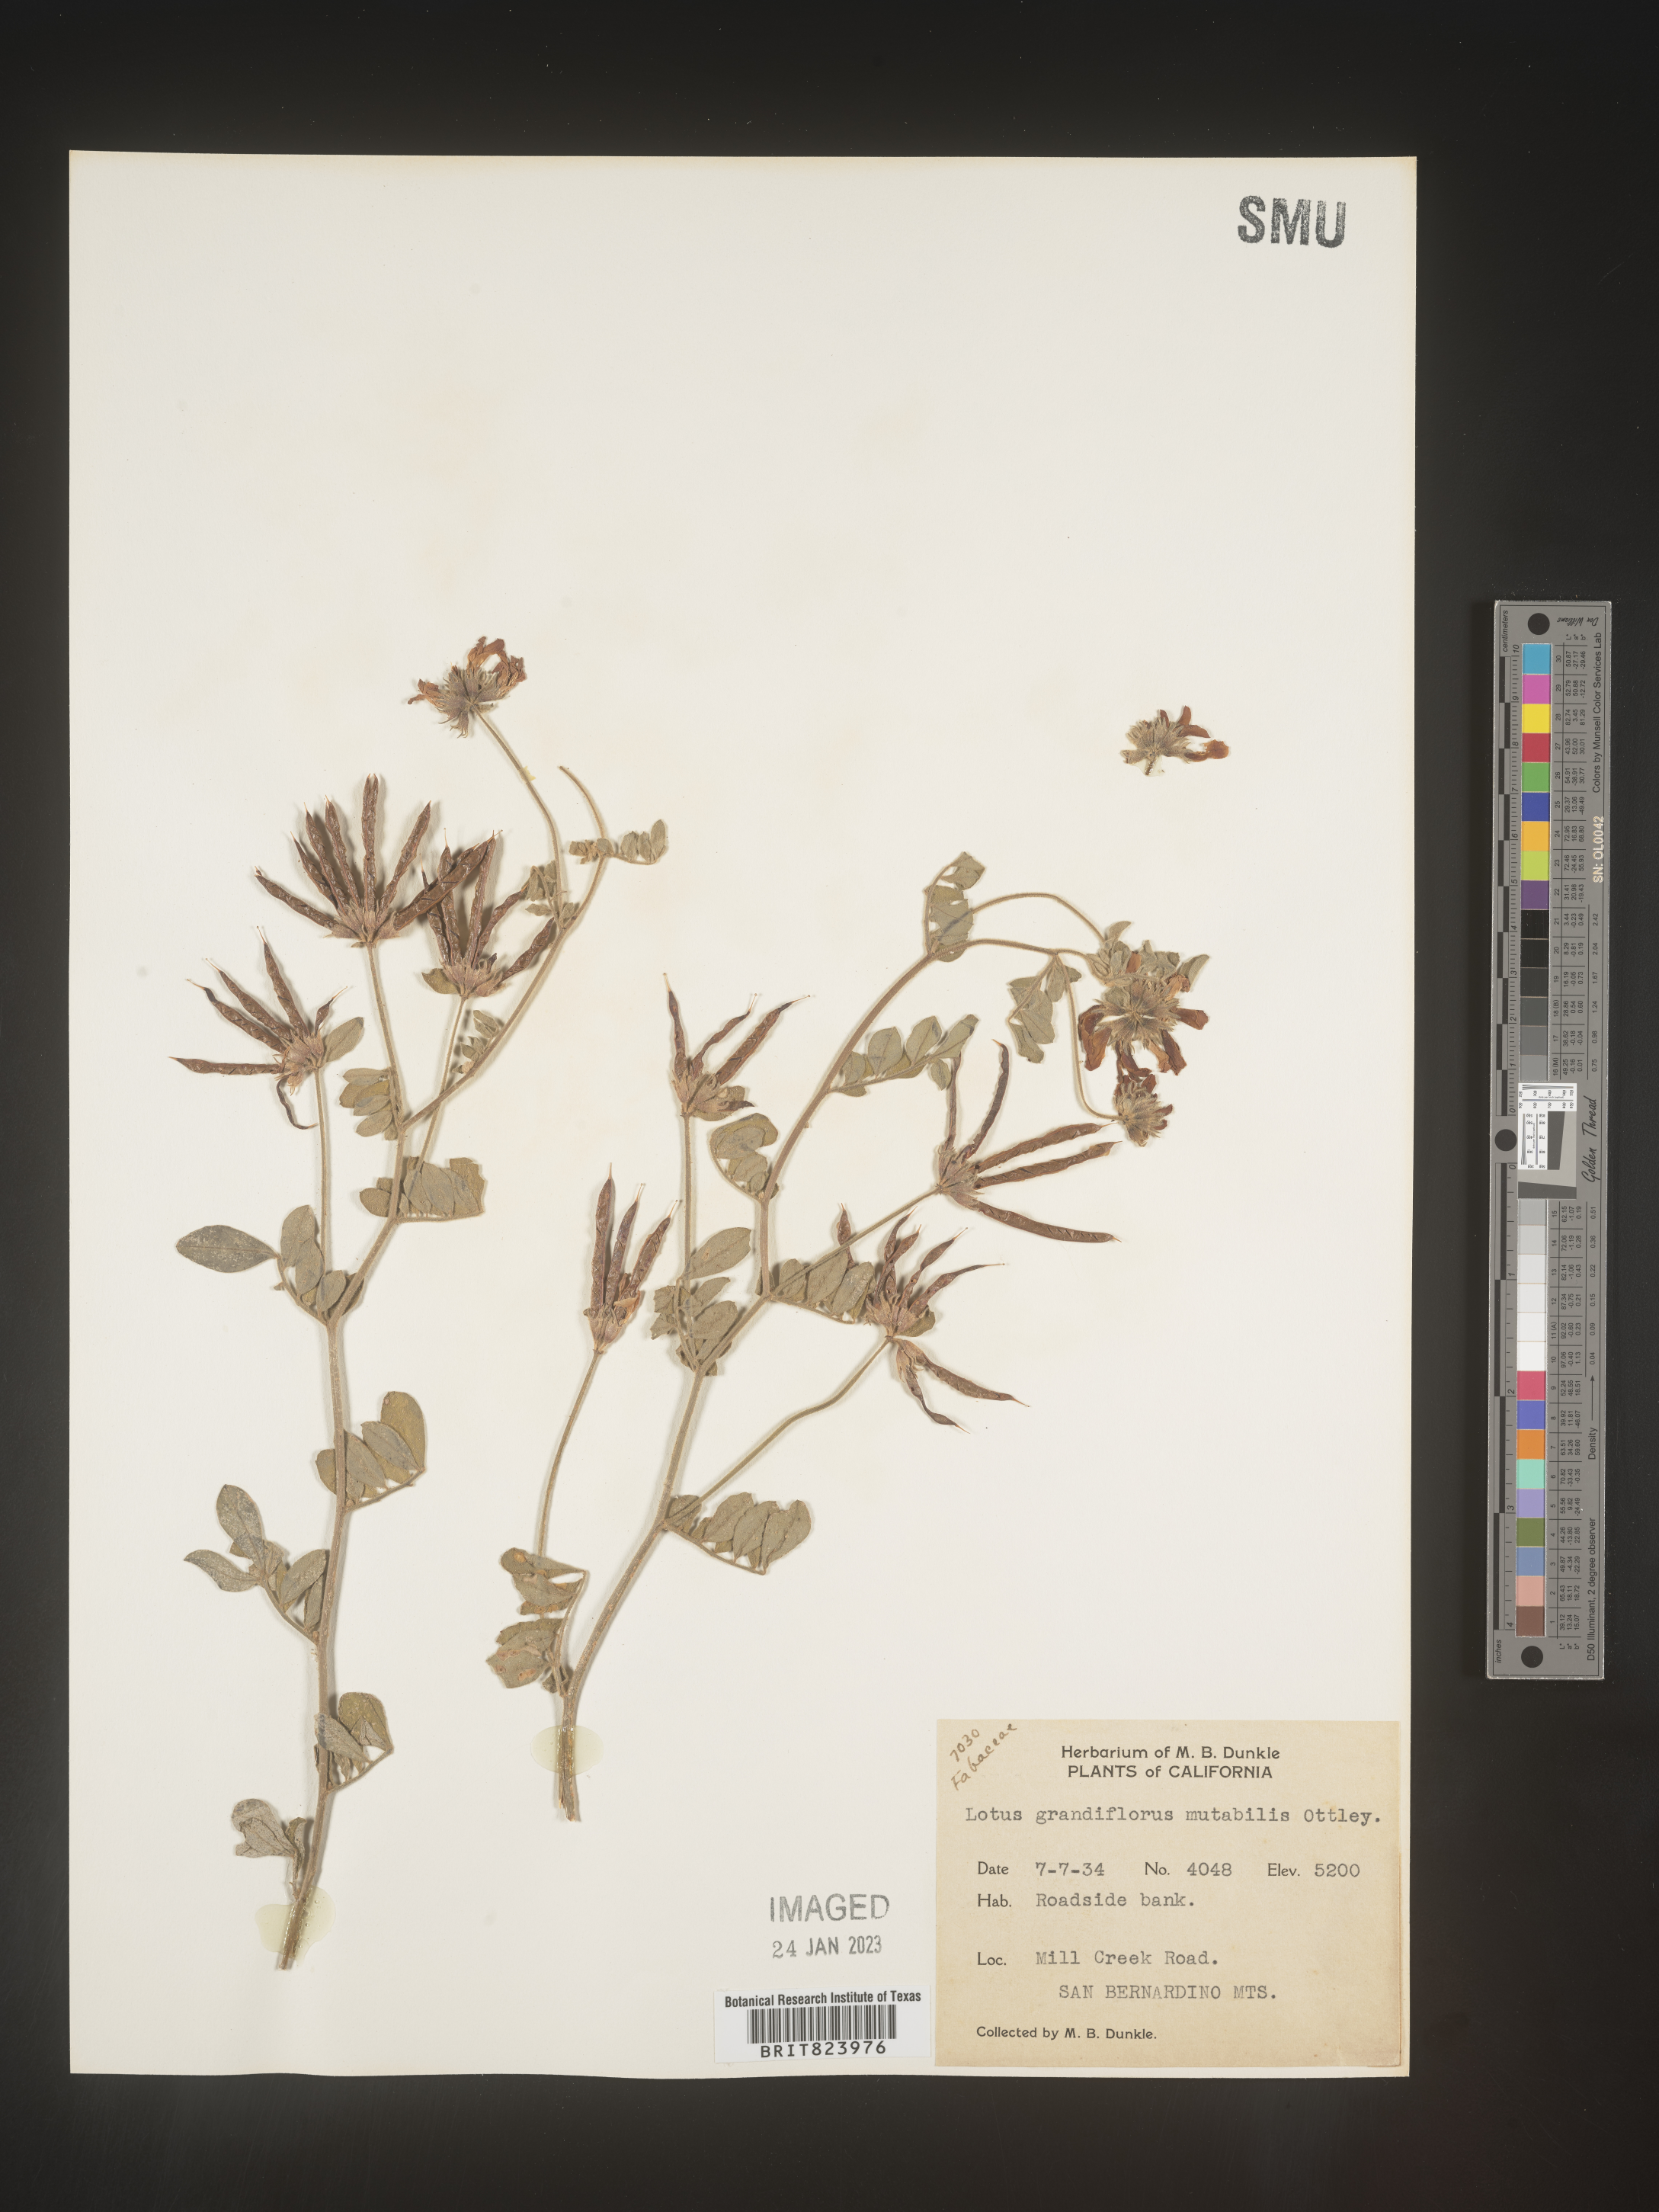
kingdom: Plantae
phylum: Tracheophyta
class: Magnoliopsida
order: Fabales
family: Fabaceae
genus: Lotus
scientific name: Lotus
